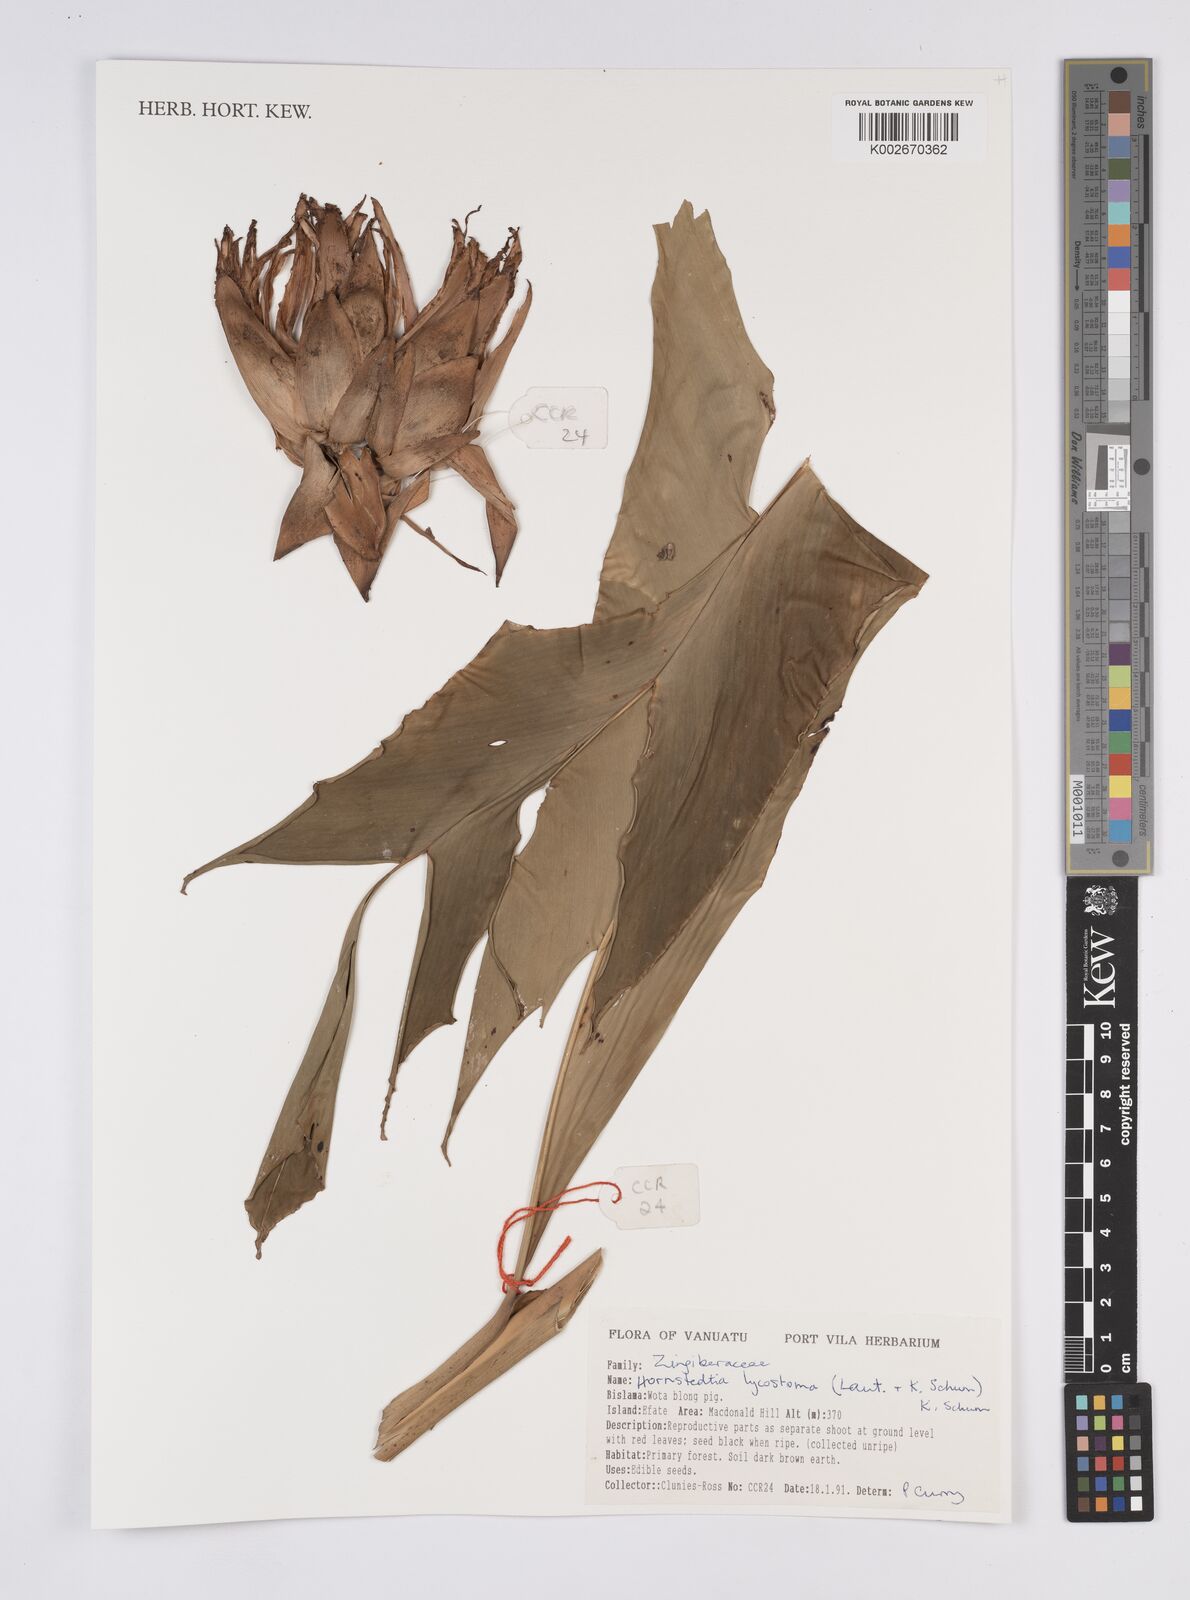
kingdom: Plantae
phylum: Tracheophyta
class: Liliopsida
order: Zingiberales
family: Zingiberaceae
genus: Hornstedtia
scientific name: Hornstedtia scottiana
